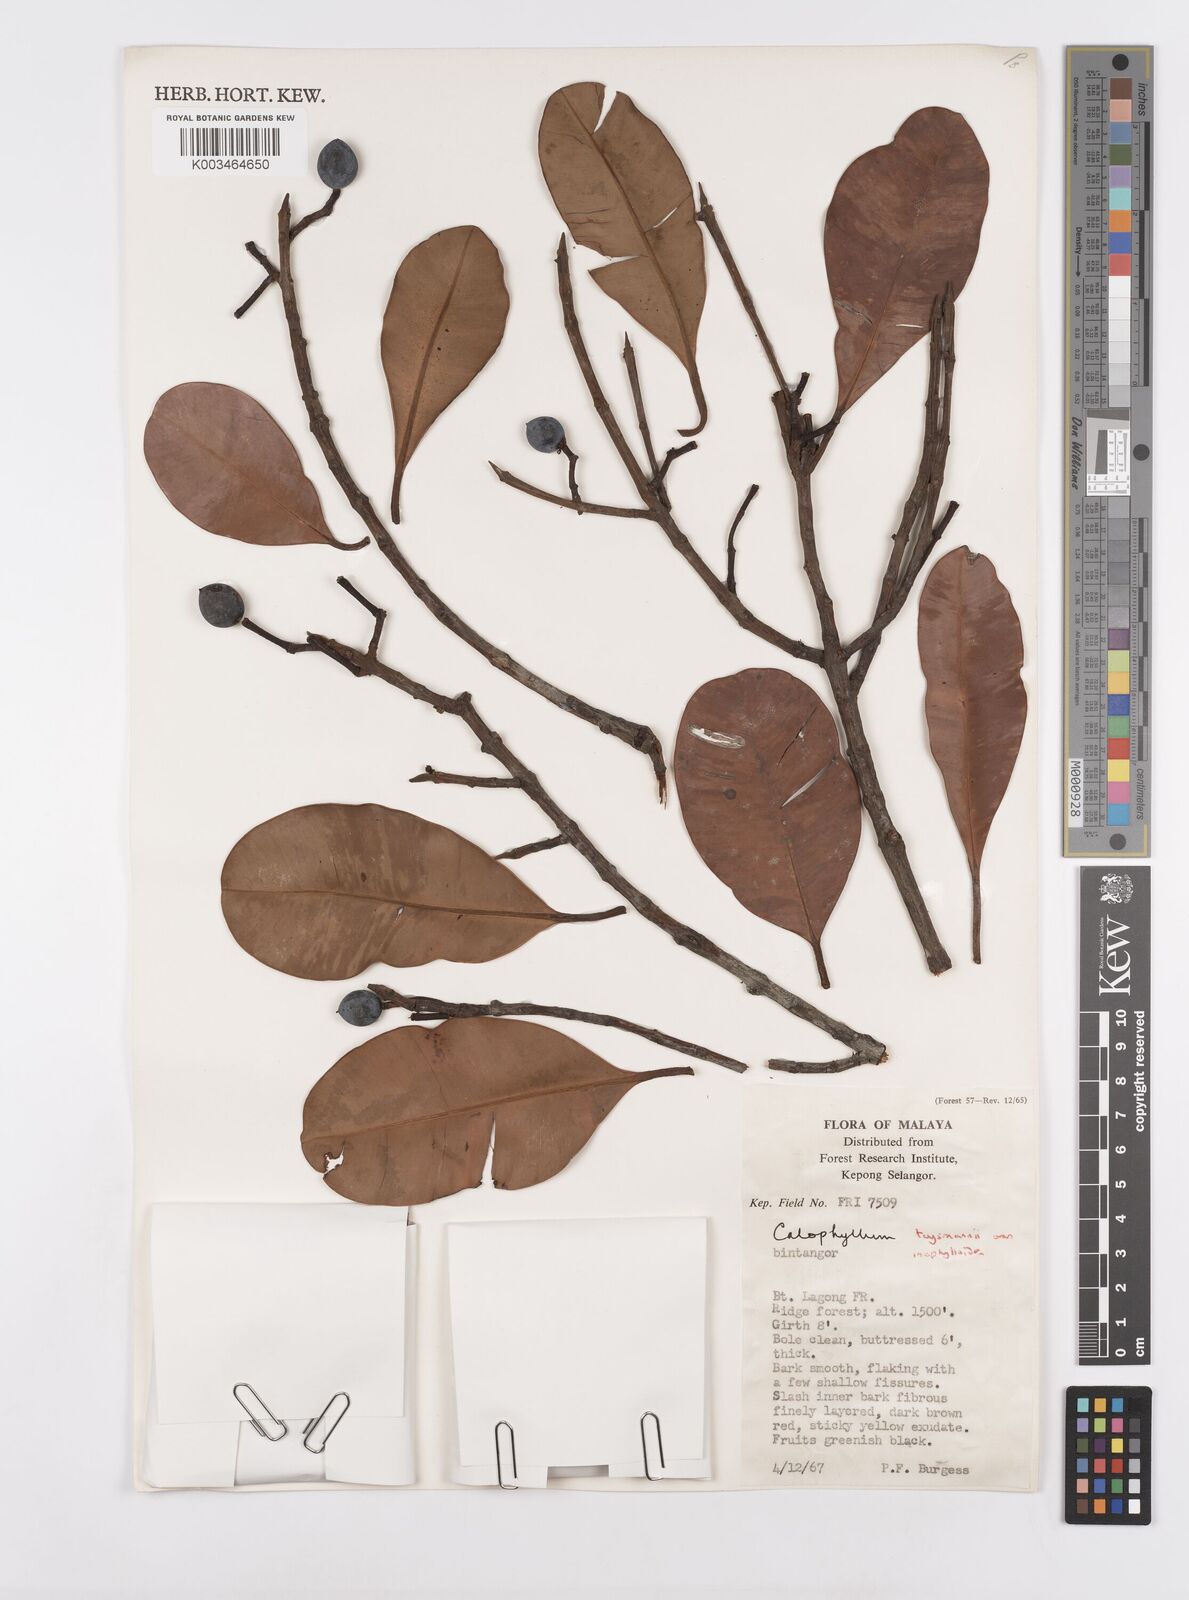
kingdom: Plantae
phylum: Tracheophyta
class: Magnoliopsida
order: Malpighiales
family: Calophyllaceae
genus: Calophyllum
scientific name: Calophyllum teysmannii
